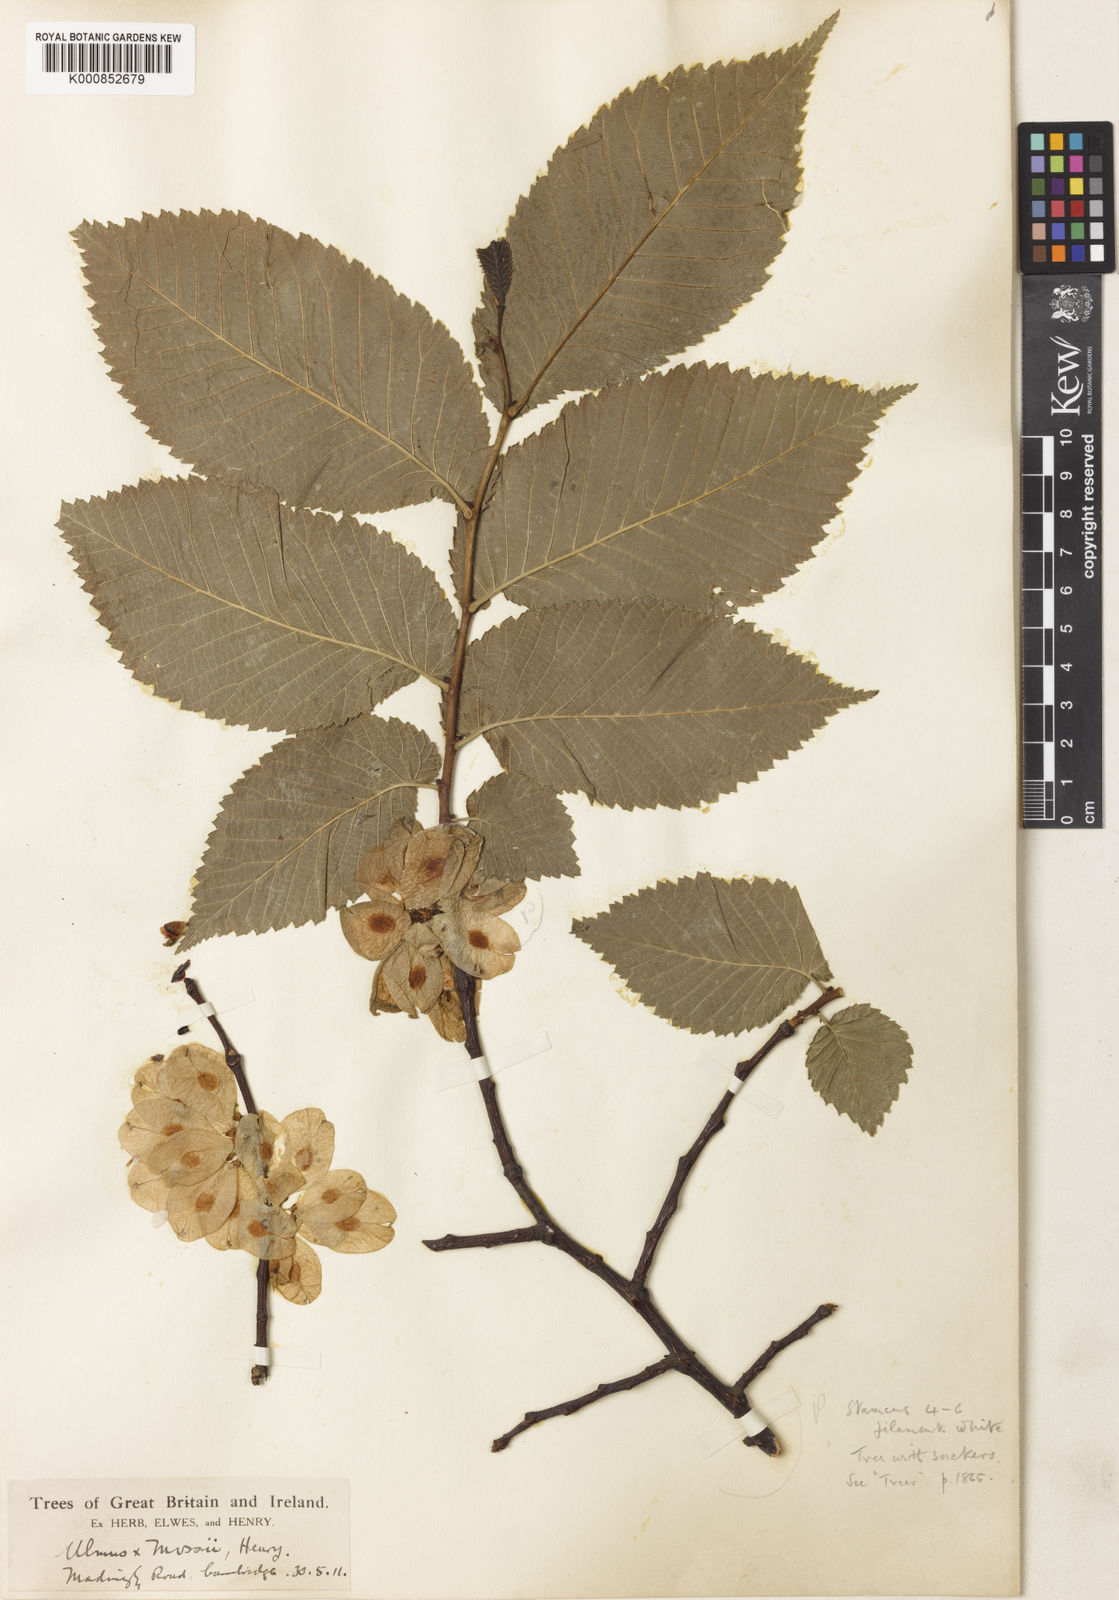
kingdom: Plantae
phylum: Tracheophyta
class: Magnoliopsida
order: Rosales
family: Ulmaceae
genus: Ulmus
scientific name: Ulmus glabra
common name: Wych elm
